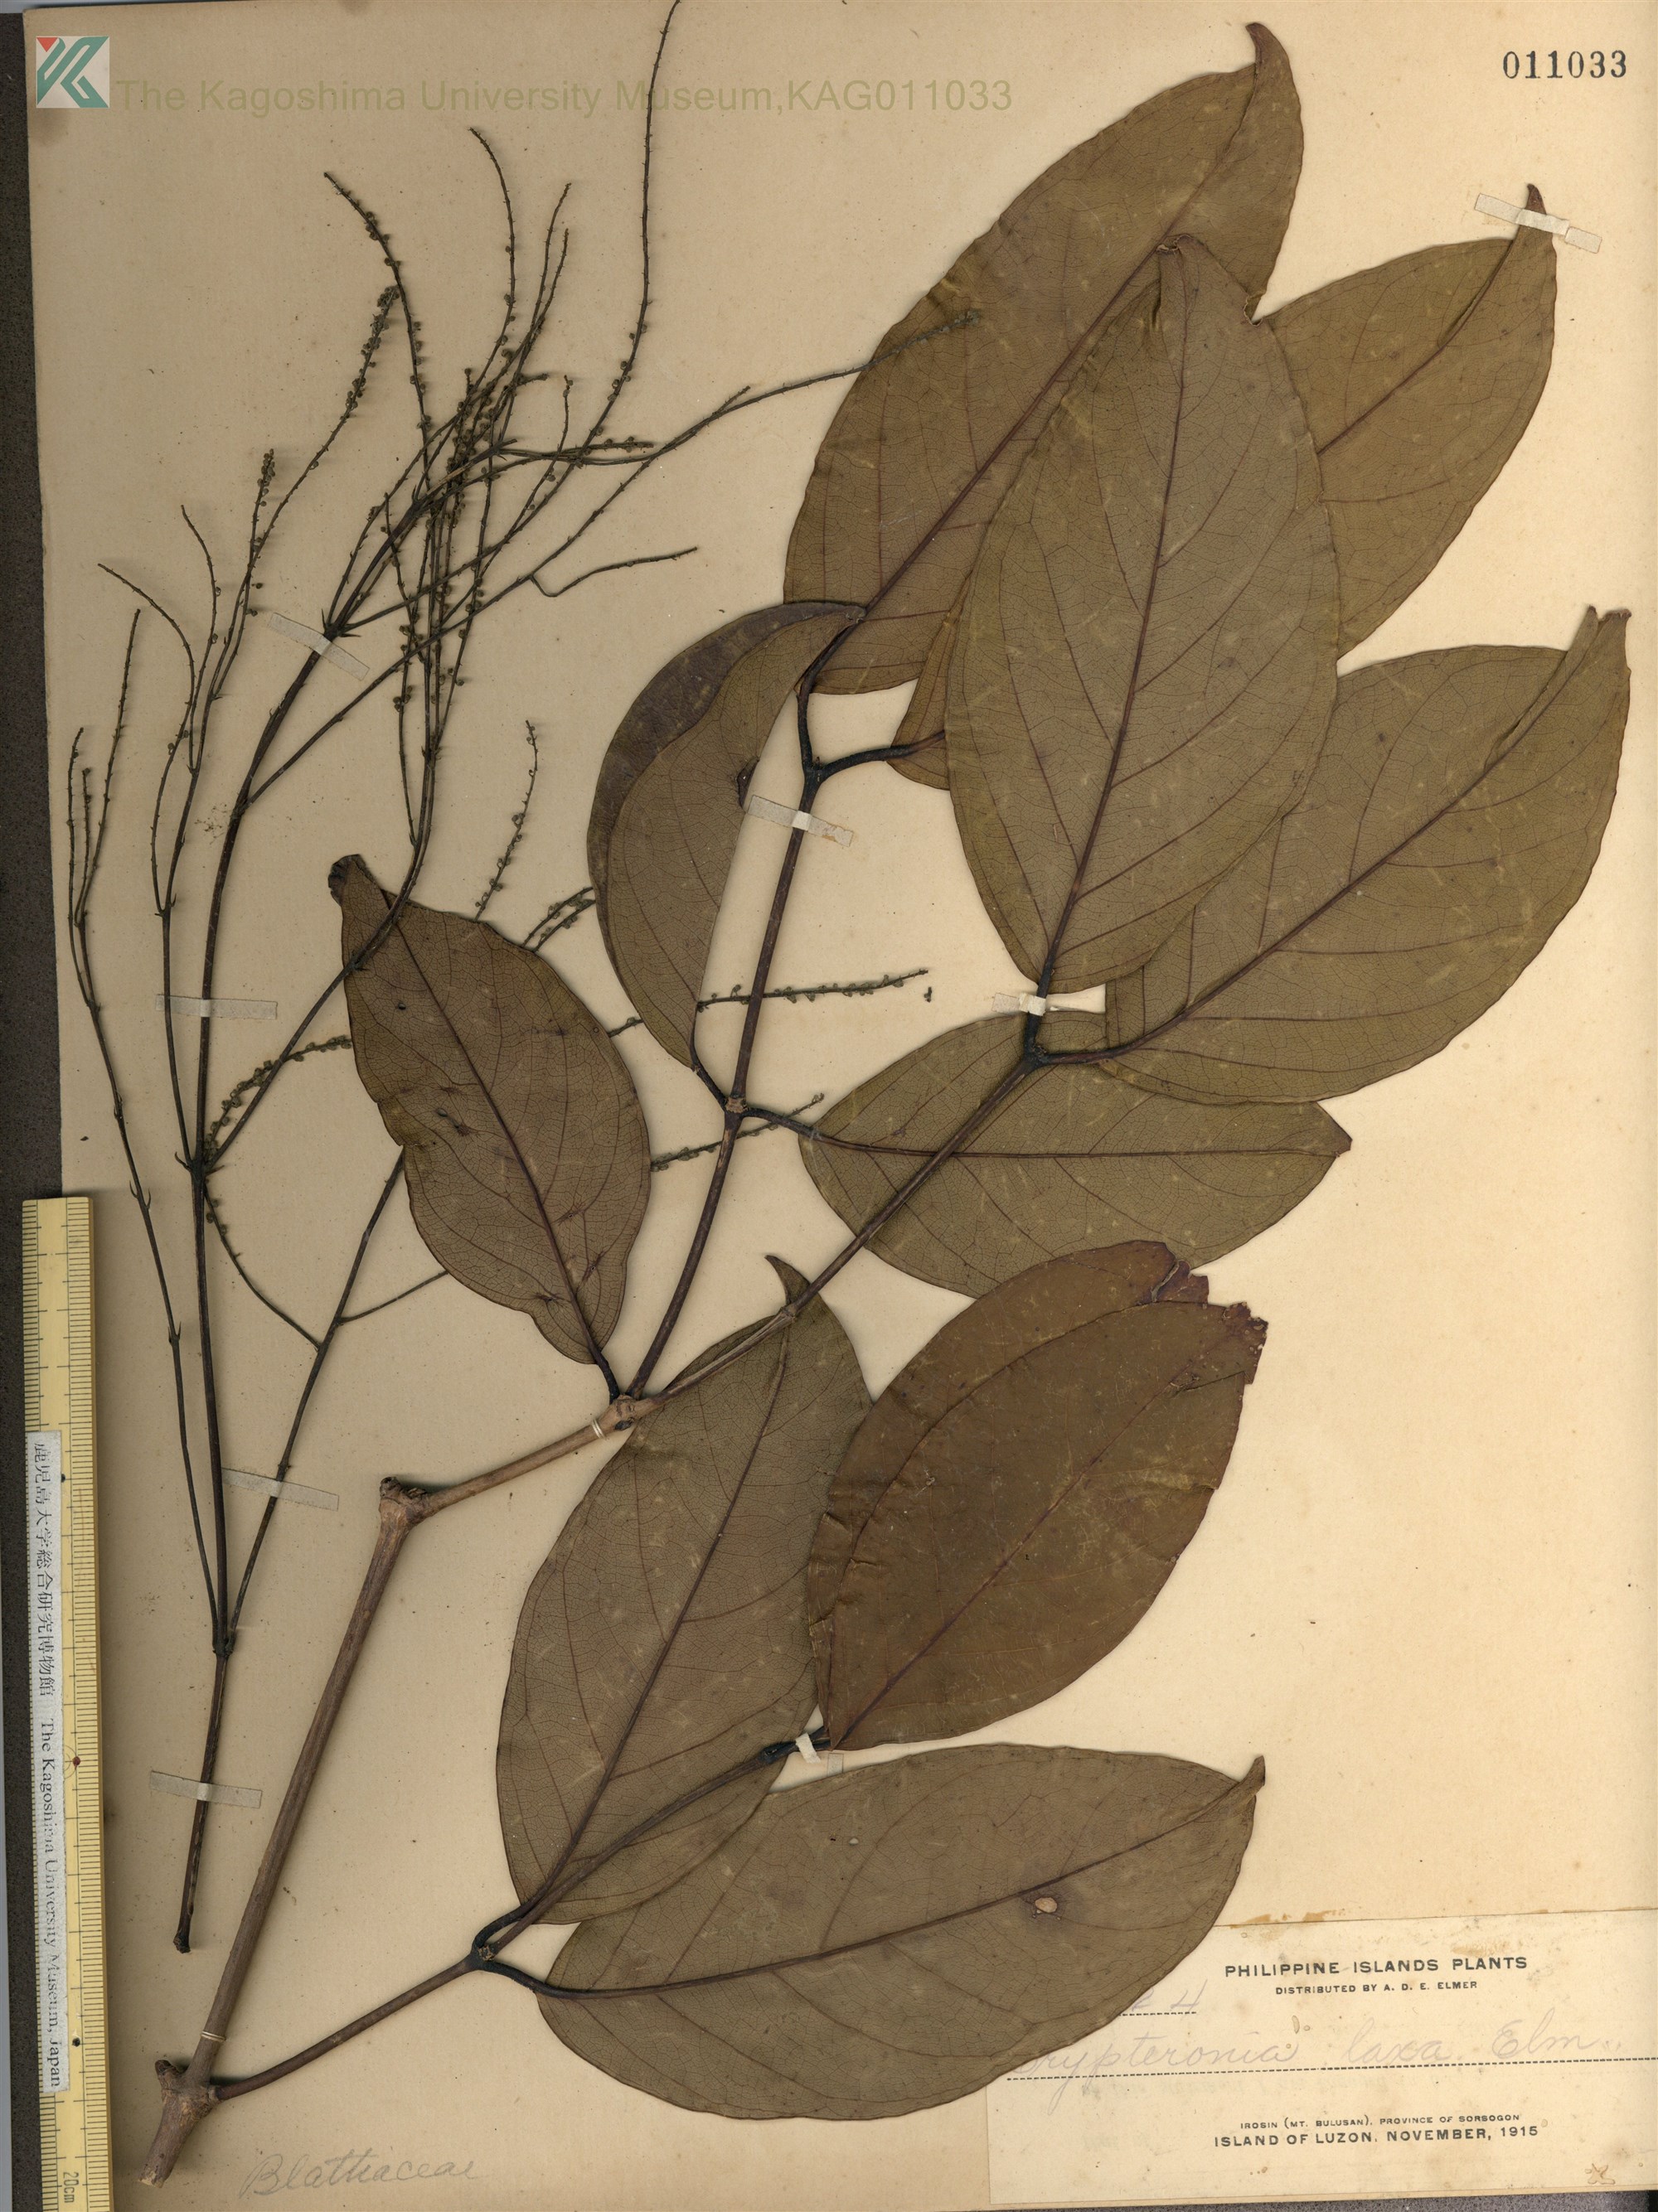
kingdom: Plantae
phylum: Tracheophyta
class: Magnoliopsida
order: Myrtales
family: Crypteroniaceae
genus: Crypteronia
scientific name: Crypteronia cumingii
